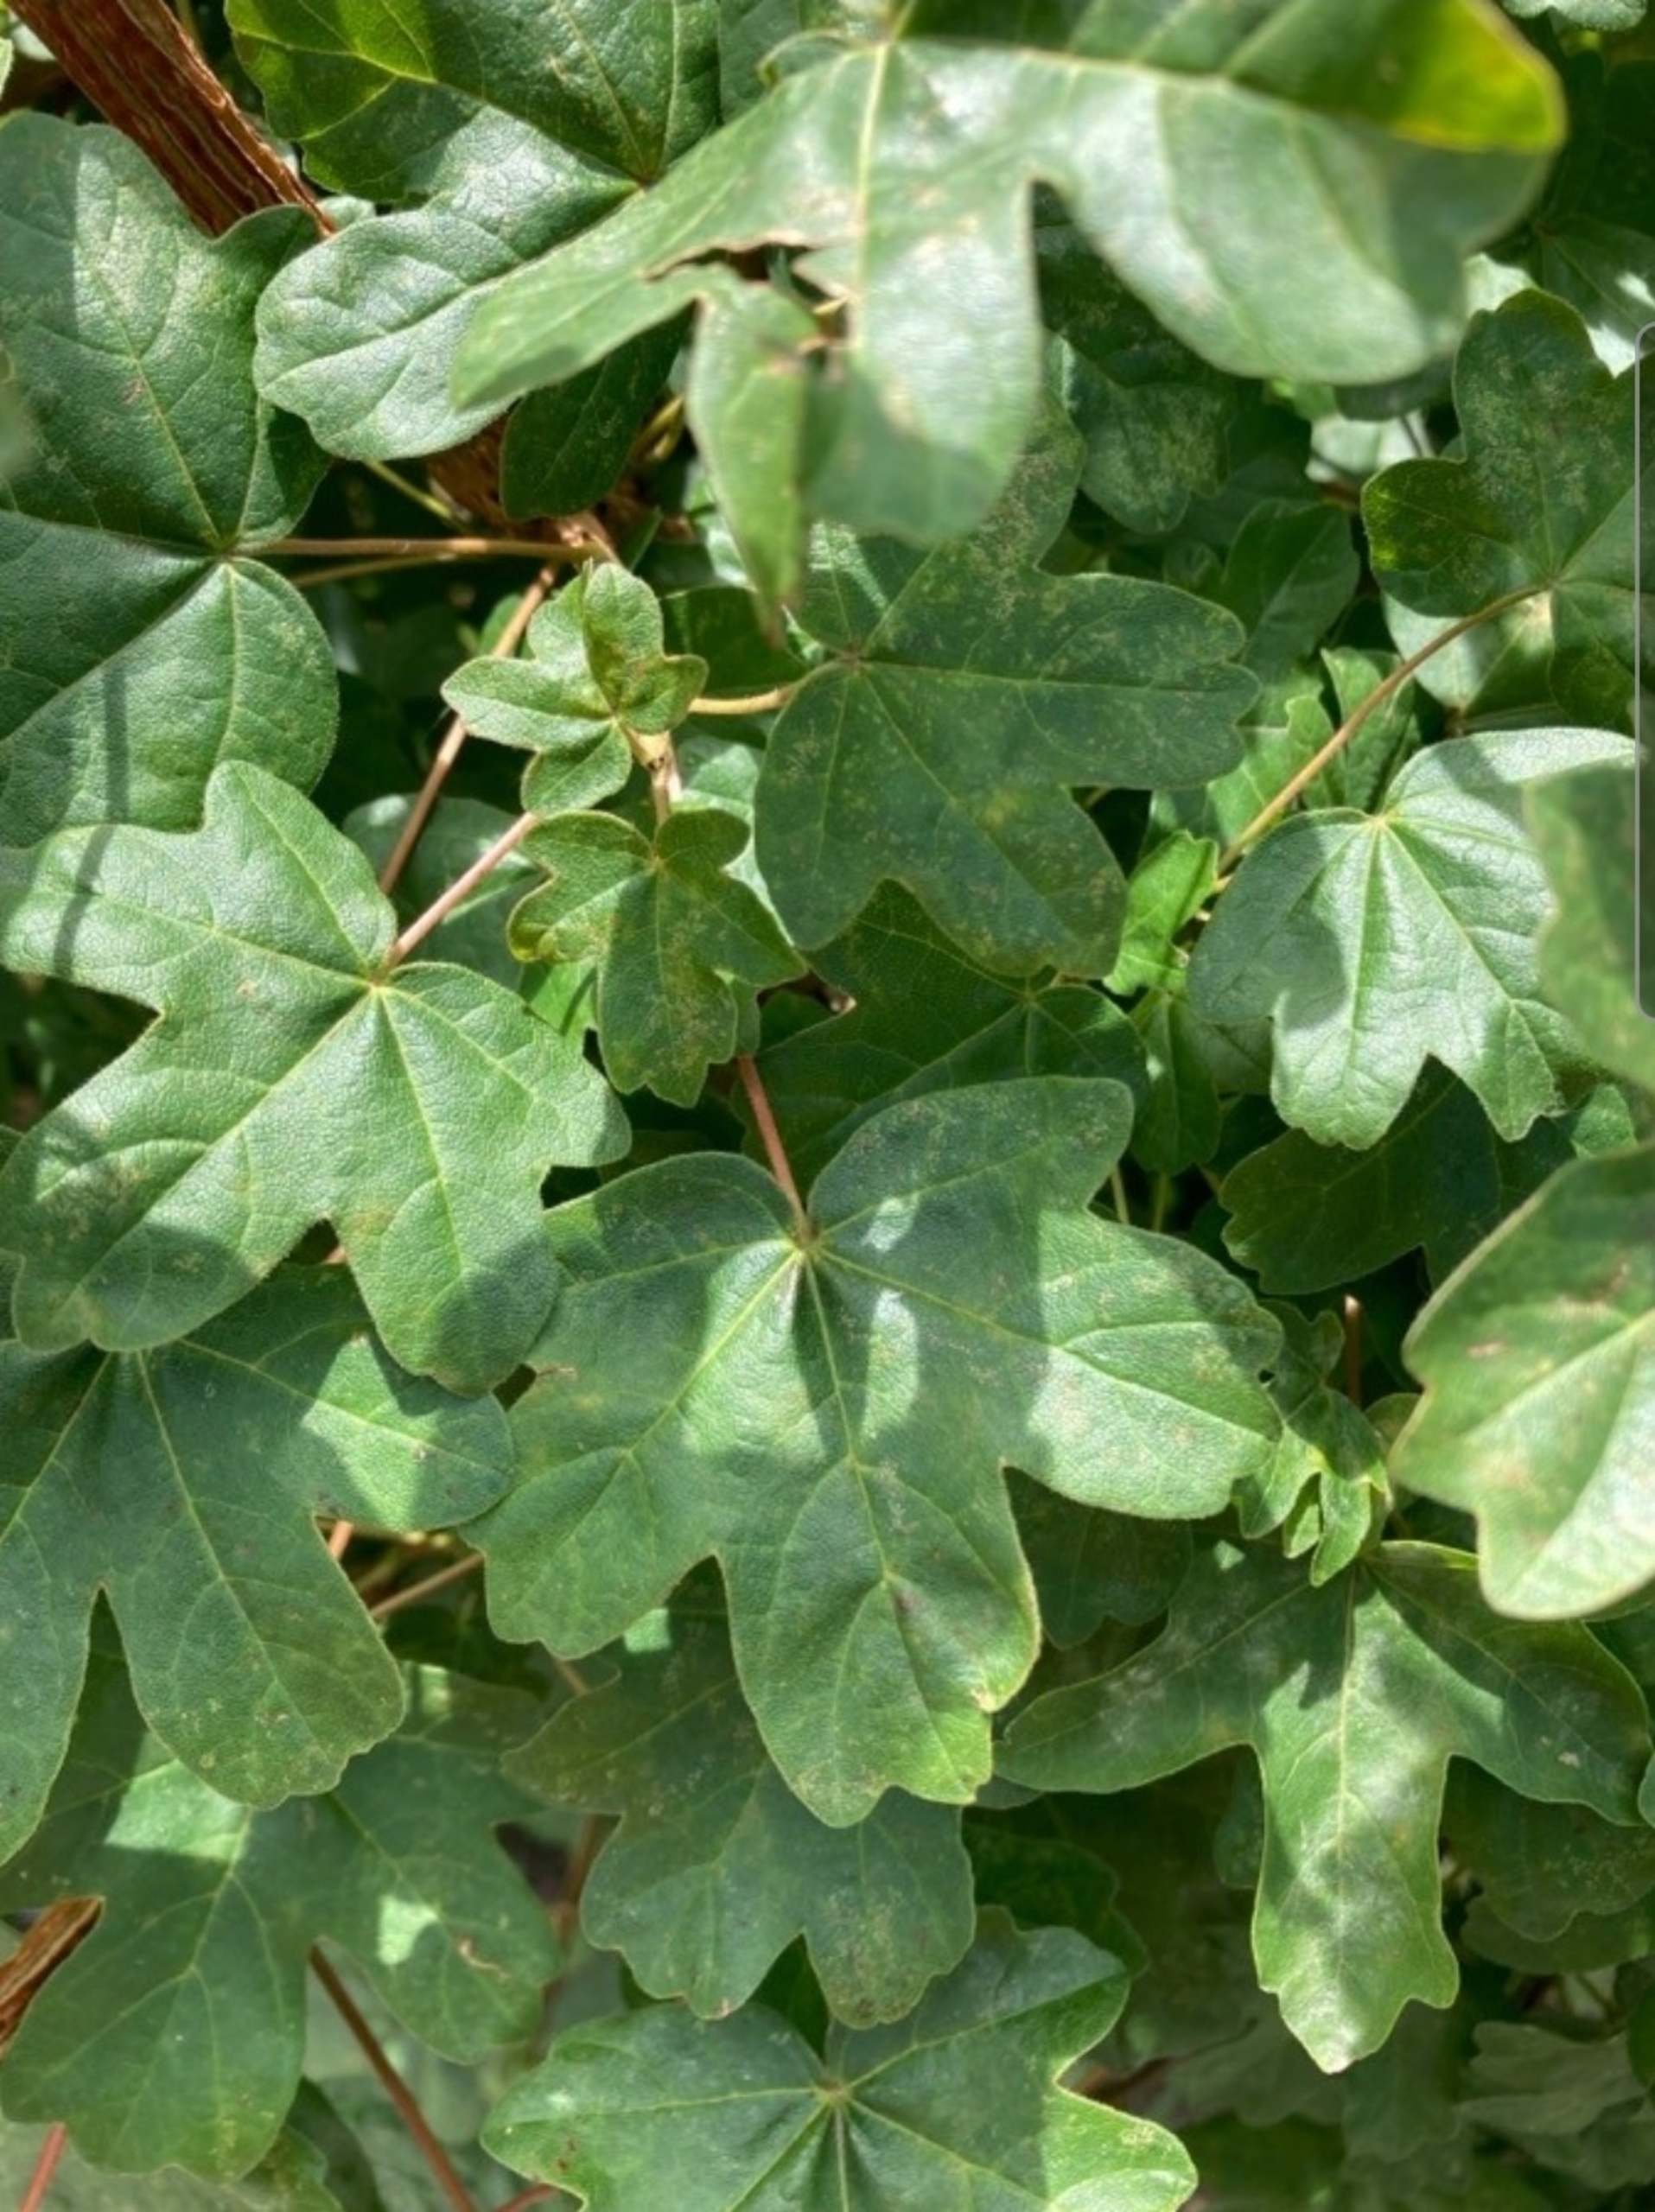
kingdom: Plantae
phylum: Tracheophyta
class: Magnoliopsida
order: Sapindales
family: Sapindaceae
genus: Acer
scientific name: Acer campestre
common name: Navr
